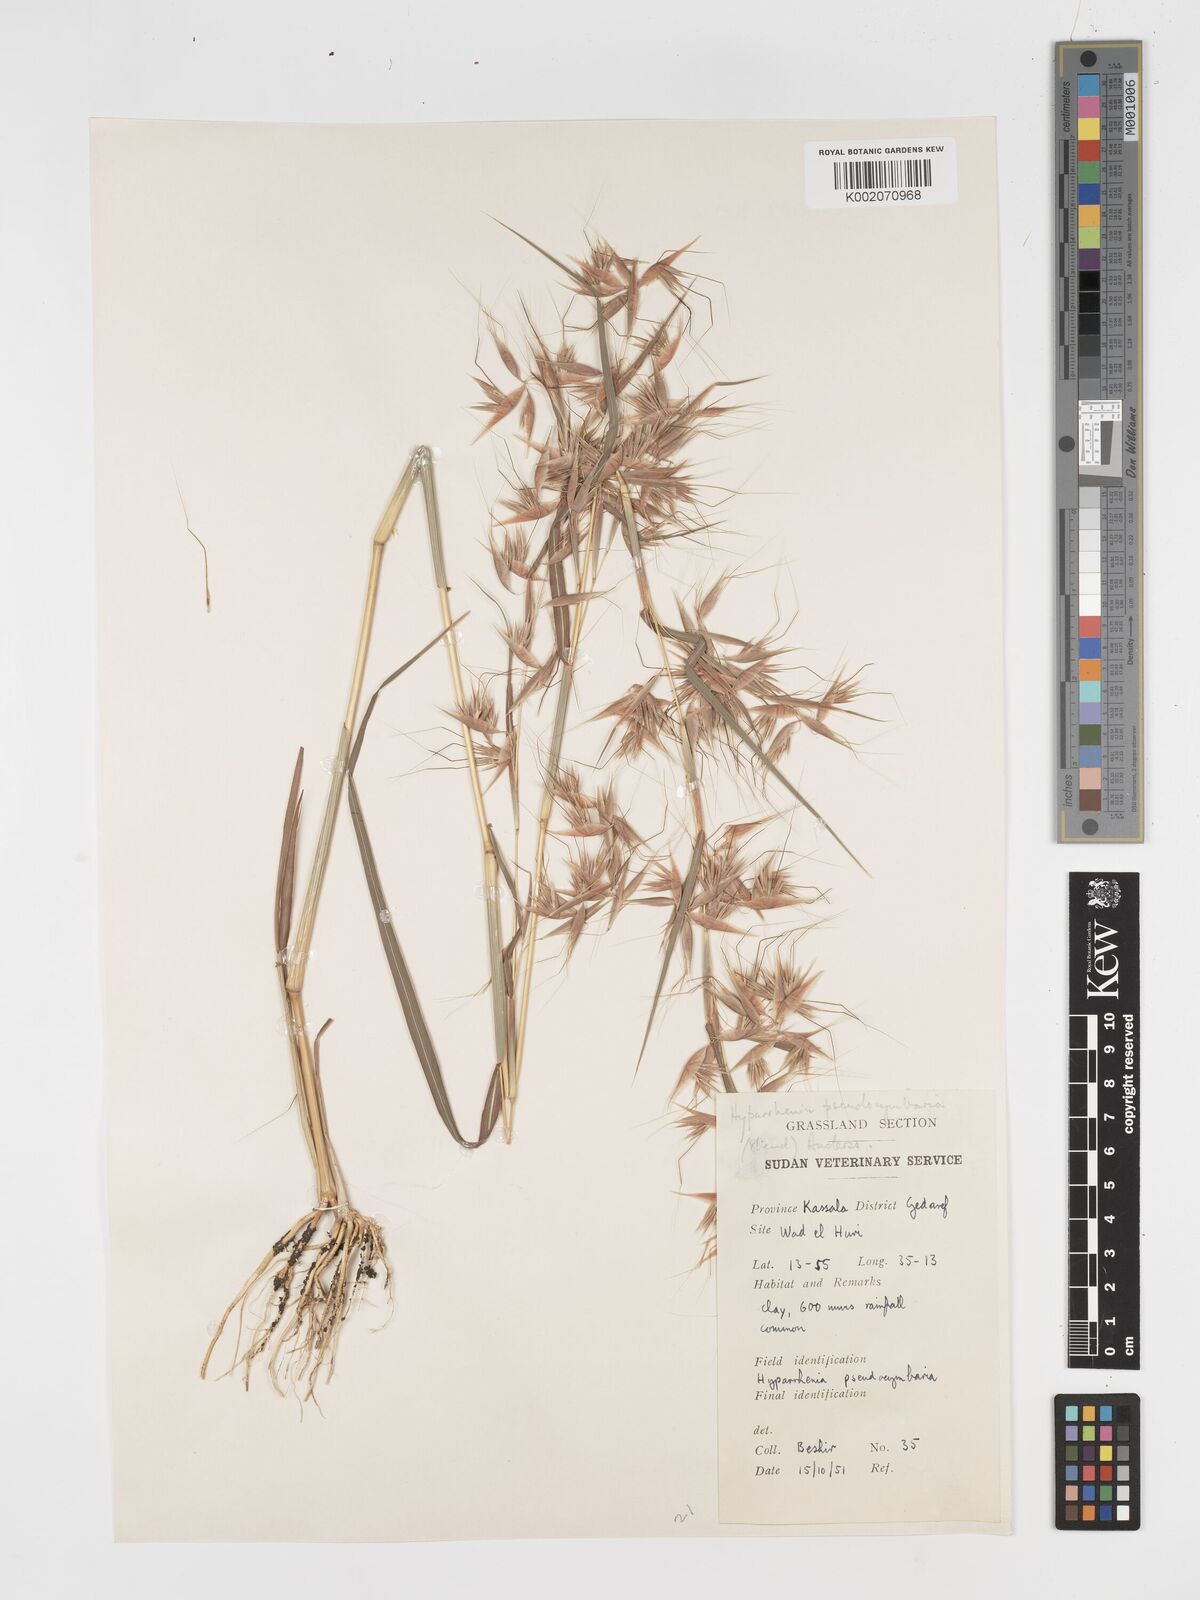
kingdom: Plantae
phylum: Tracheophyta
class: Liliopsida
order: Poales
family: Poaceae
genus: Hyparrhenia
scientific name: Hyparrhenia anthistirioides
